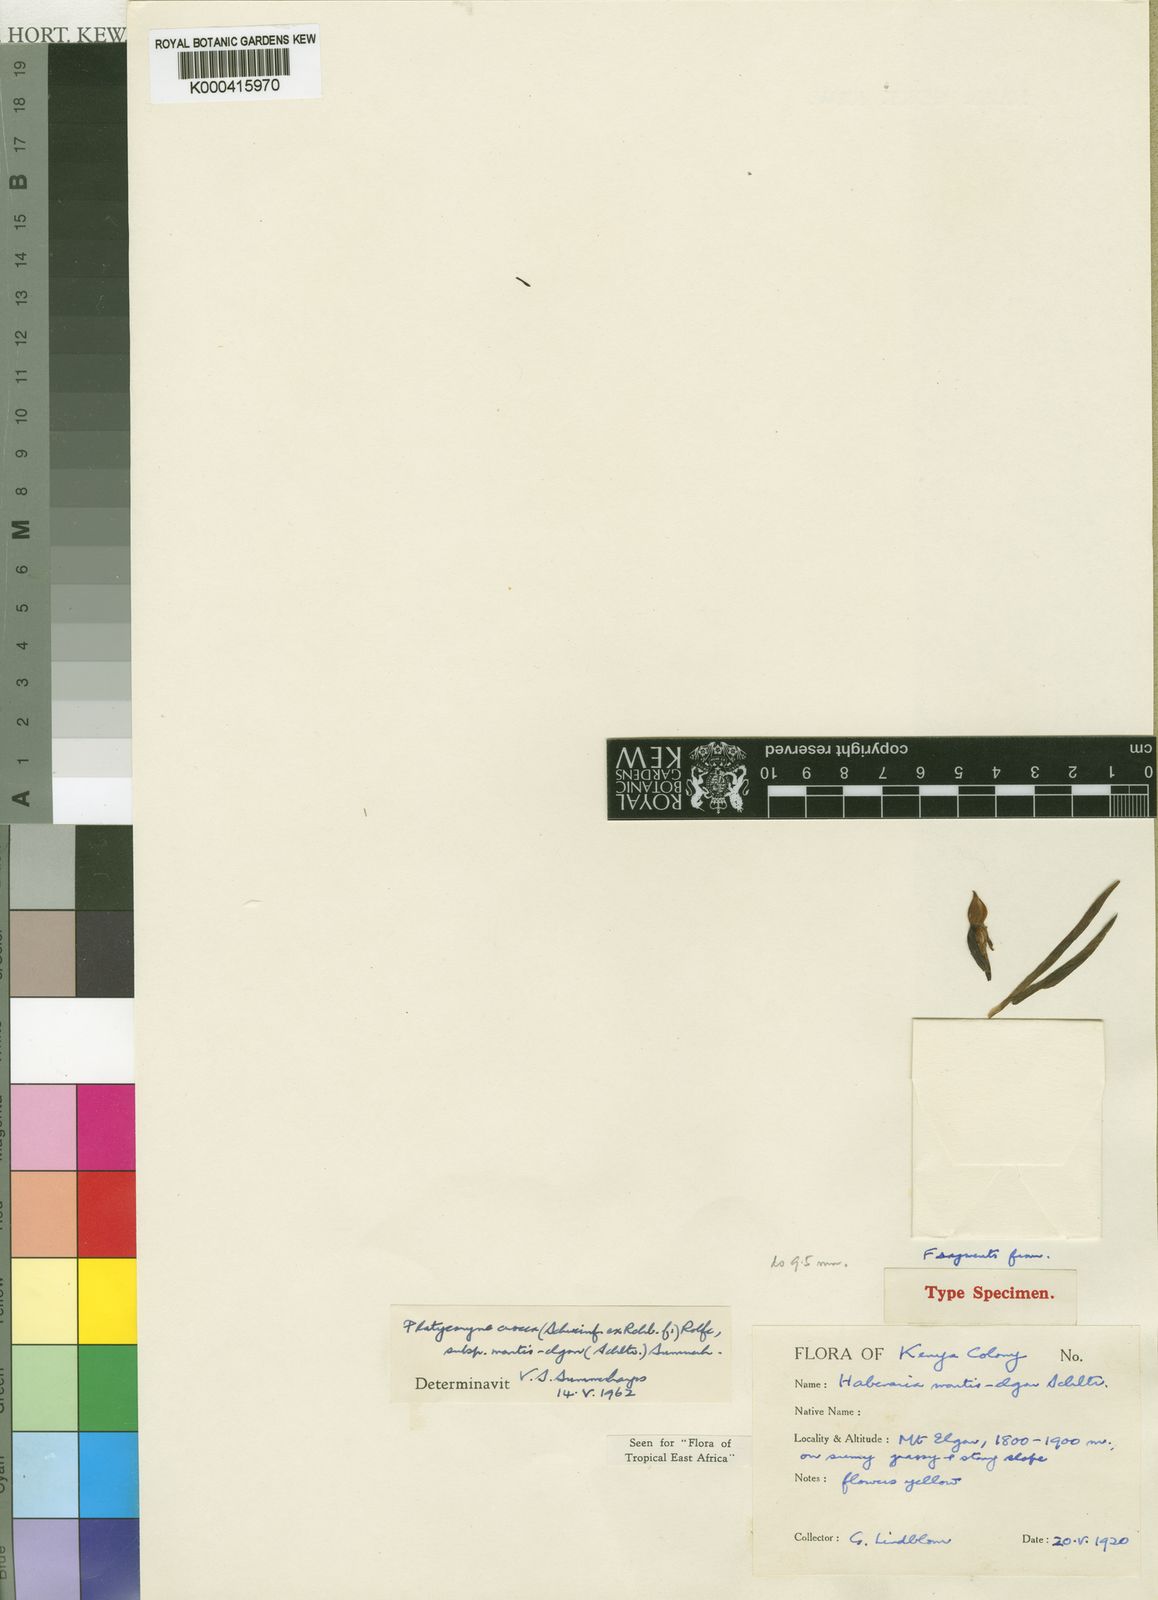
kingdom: Plantae
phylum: Tracheophyta
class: Liliopsida
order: Asparagales
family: Orchidaceae
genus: Platycoryne
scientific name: Platycoryne crocea
